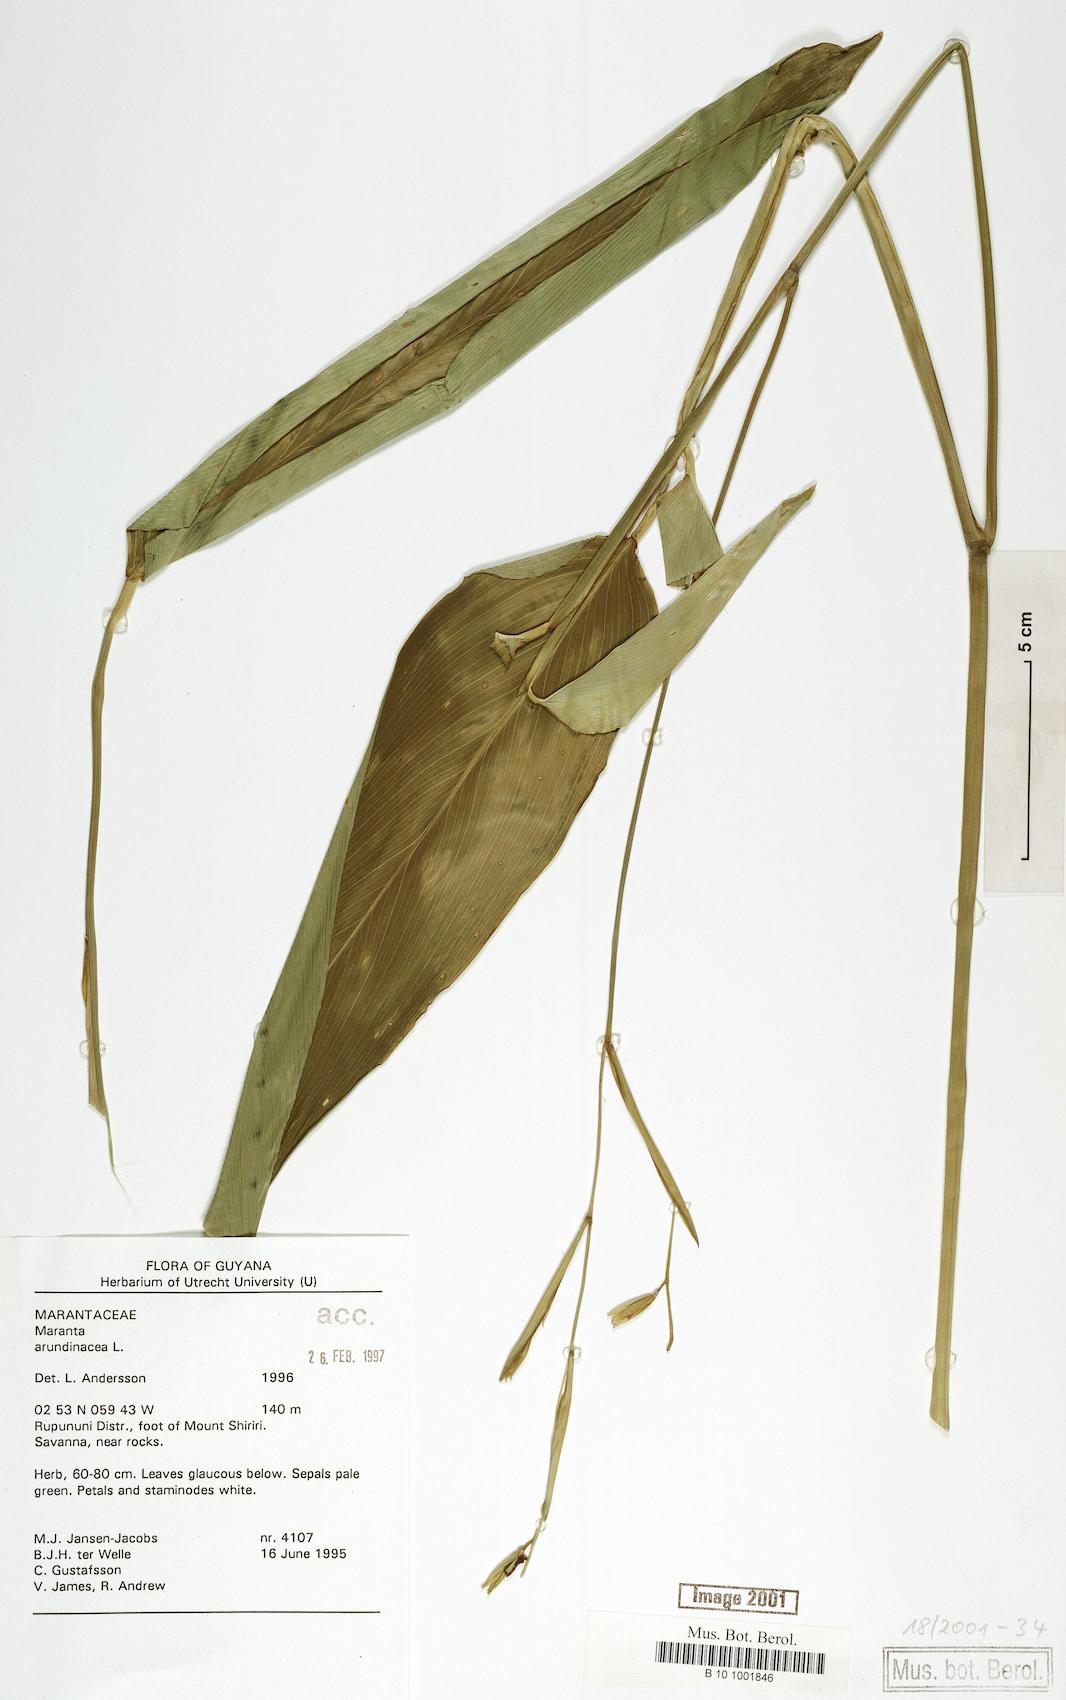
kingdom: Plantae
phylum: Tracheophyta
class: Liliopsida
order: Zingiberales
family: Marantaceae
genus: Maranta
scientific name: Maranta arundinacea
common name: Arrowroot
